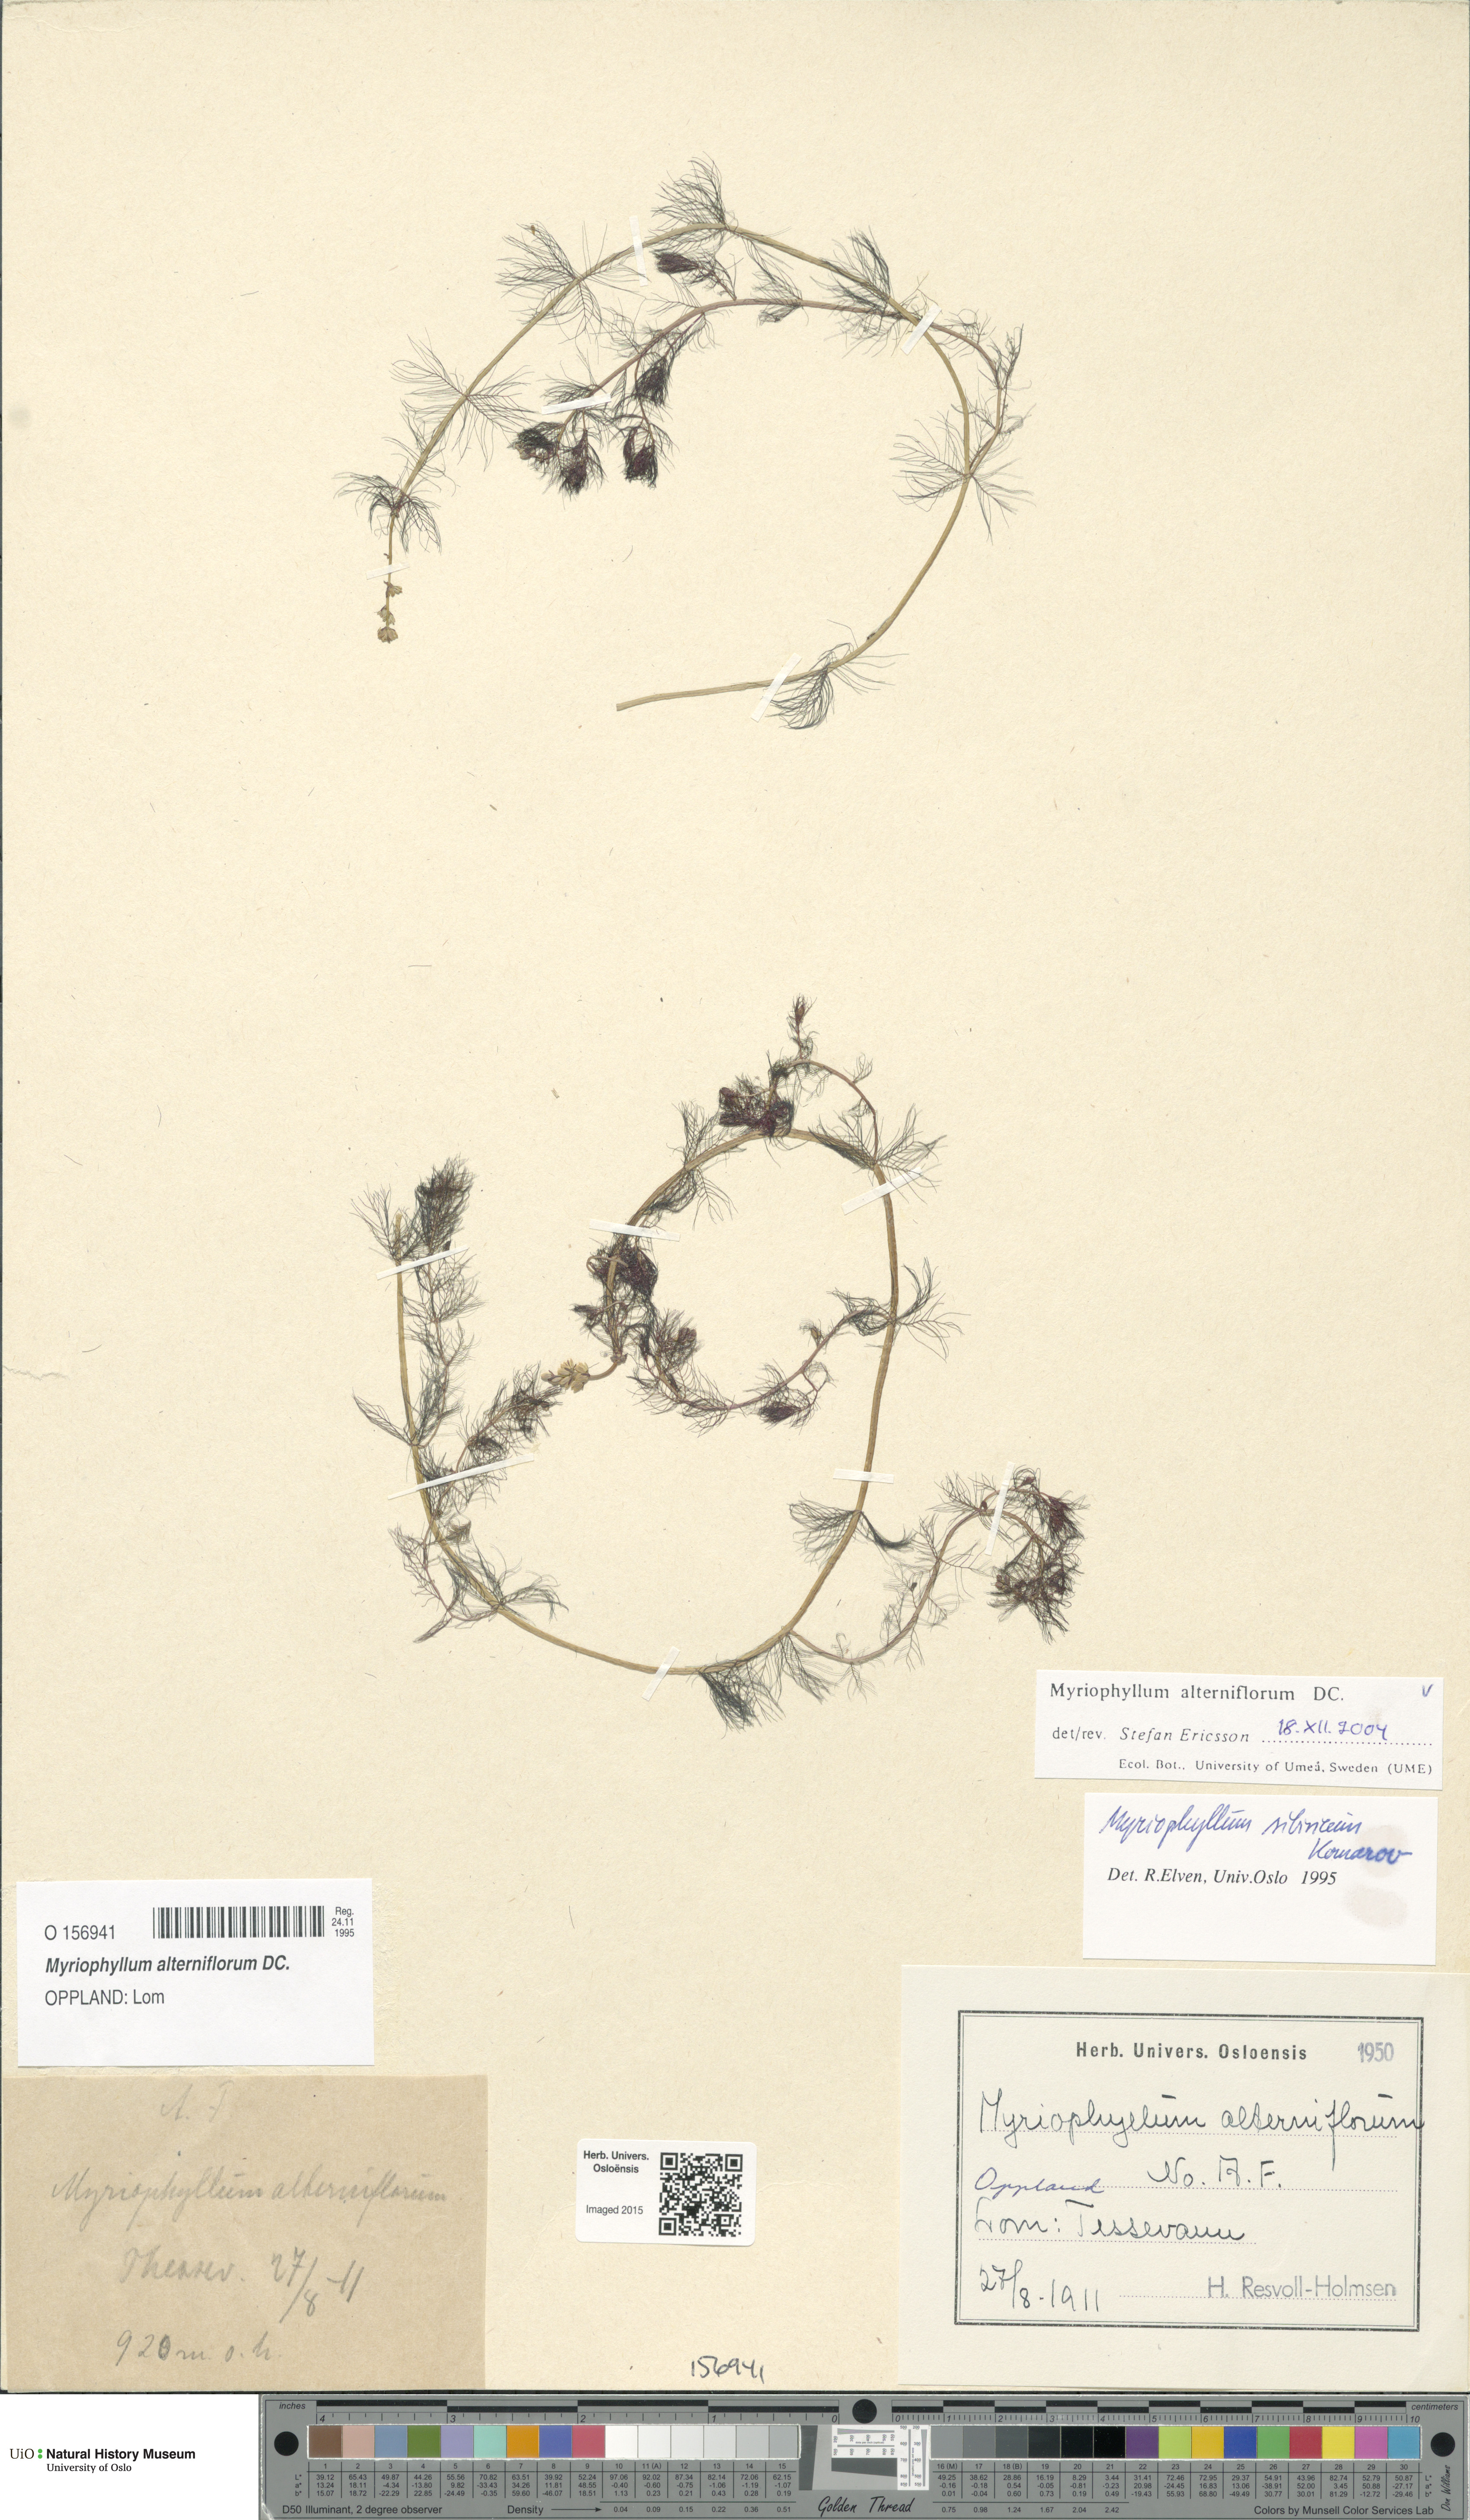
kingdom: Plantae
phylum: Tracheophyta
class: Magnoliopsida
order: Saxifragales
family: Haloragaceae
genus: Myriophyllum
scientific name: Myriophyllum alterniflorum
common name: Alternate water-milfoil
